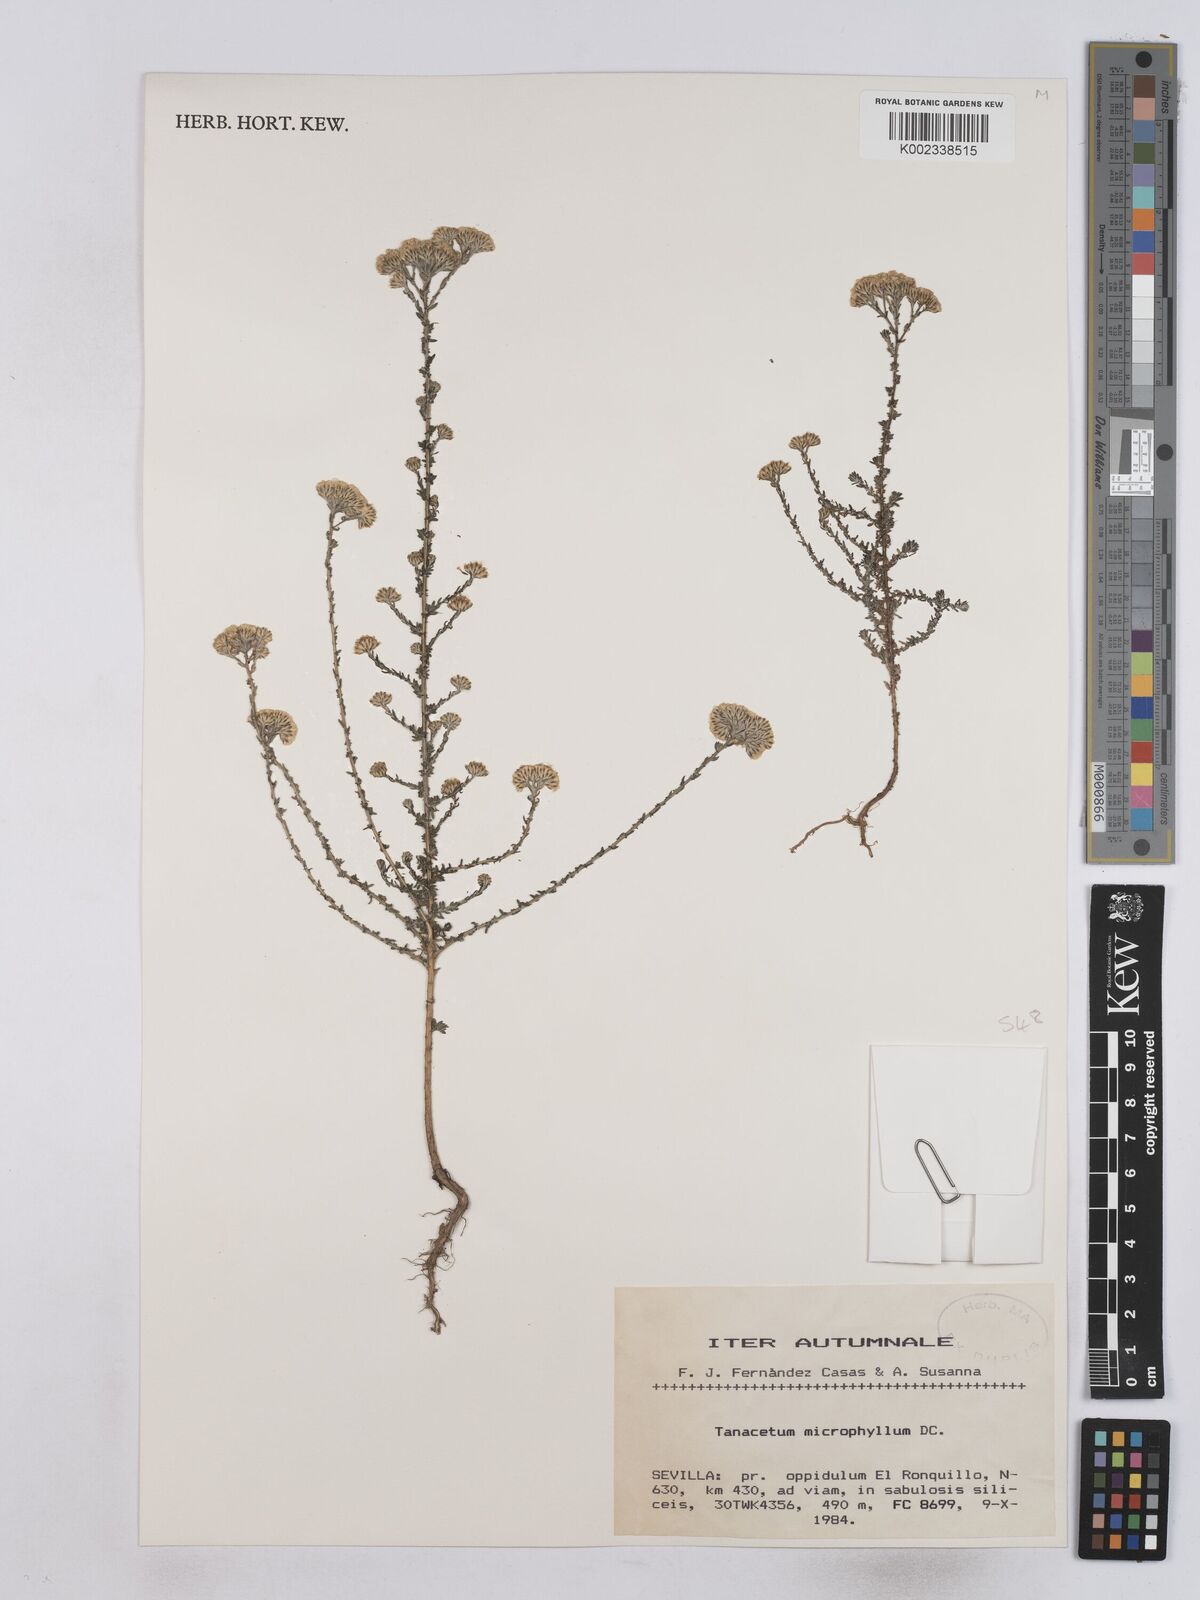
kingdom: Plantae
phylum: Tracheophyta
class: Magnoliopsida
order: Asterales
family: Asteraceae
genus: Vogtia
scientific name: Vogtia microphylla
